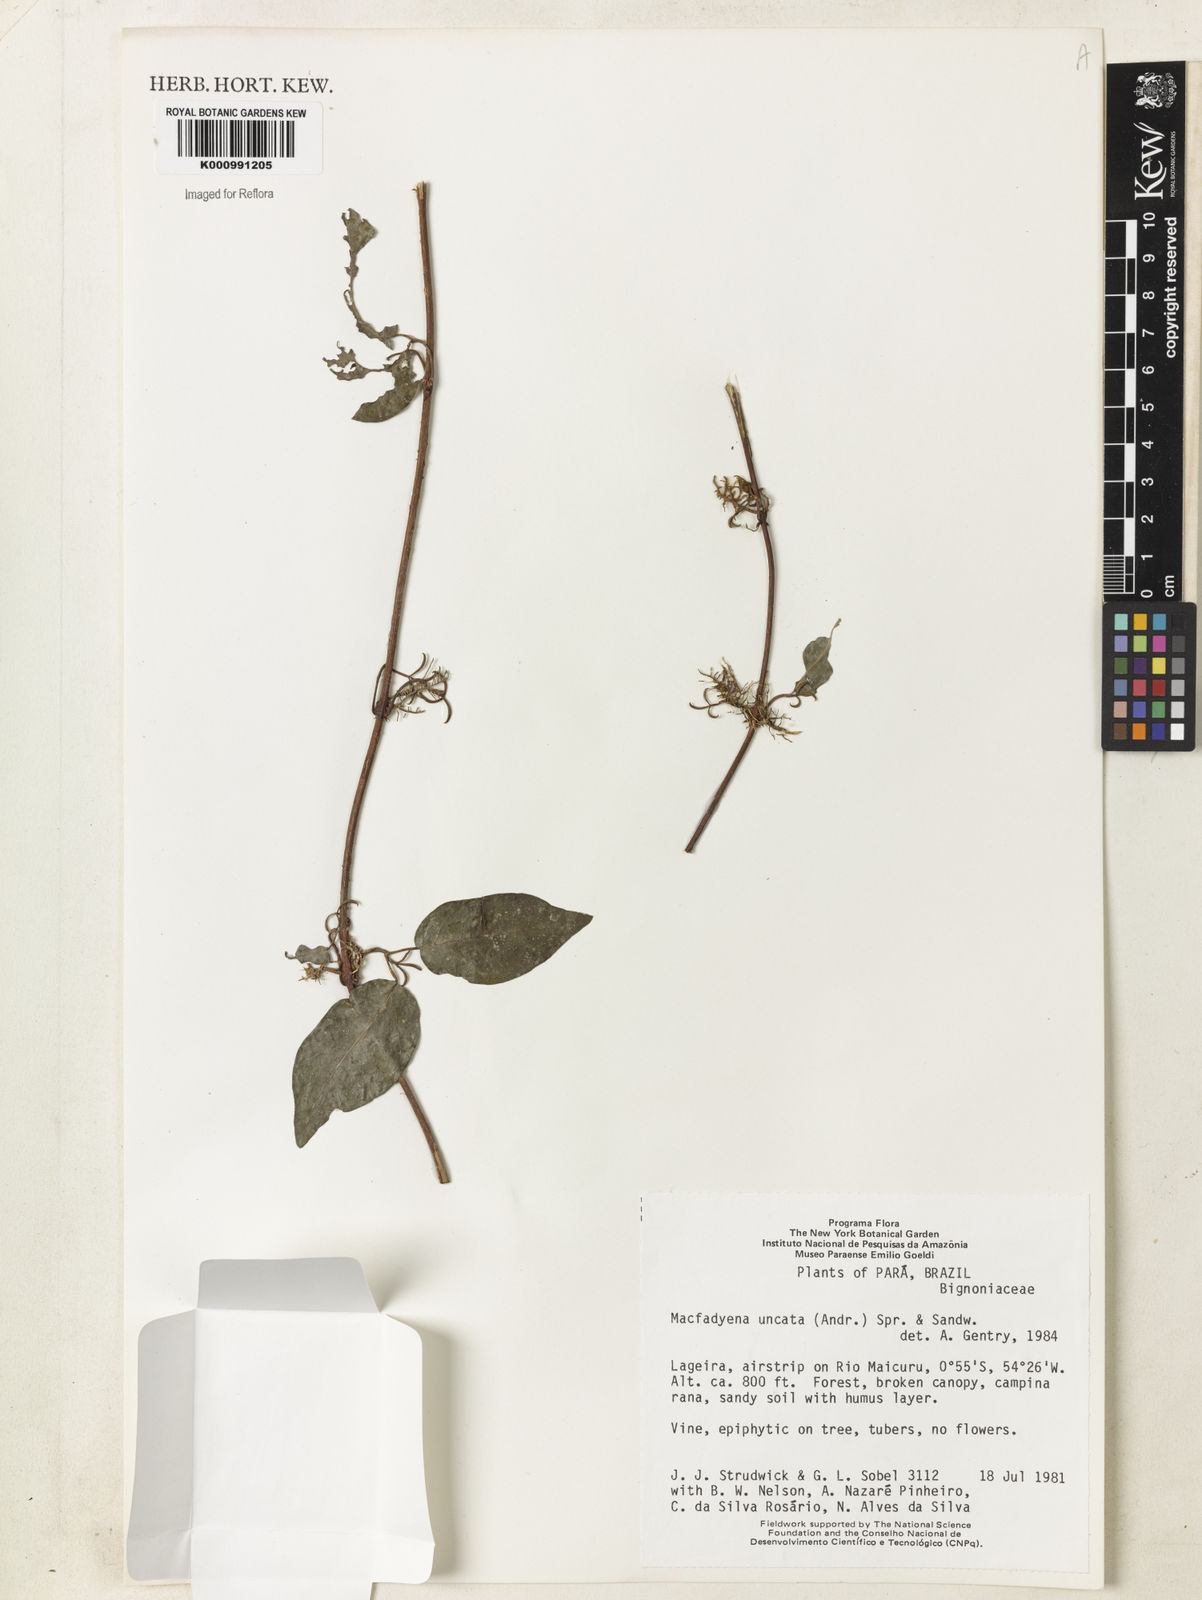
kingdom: Plantae
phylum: Tracheophyta
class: Magnoliopsida
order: Lamiales
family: Bignoniaceae
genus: Dolichandra
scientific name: Dolichandra uncata
